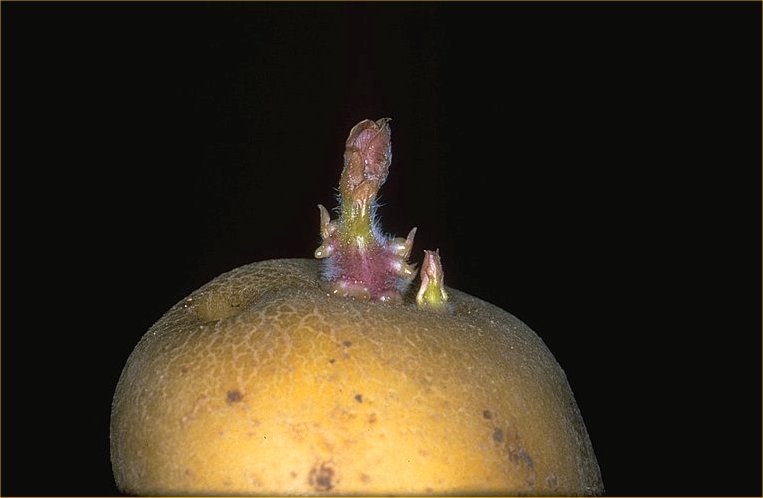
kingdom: Plantae
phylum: Tracheophyta
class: Magnoliopsida
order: Solanales
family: Solanaceae
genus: Solanum
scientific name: Solanum tuberosum
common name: Potato
